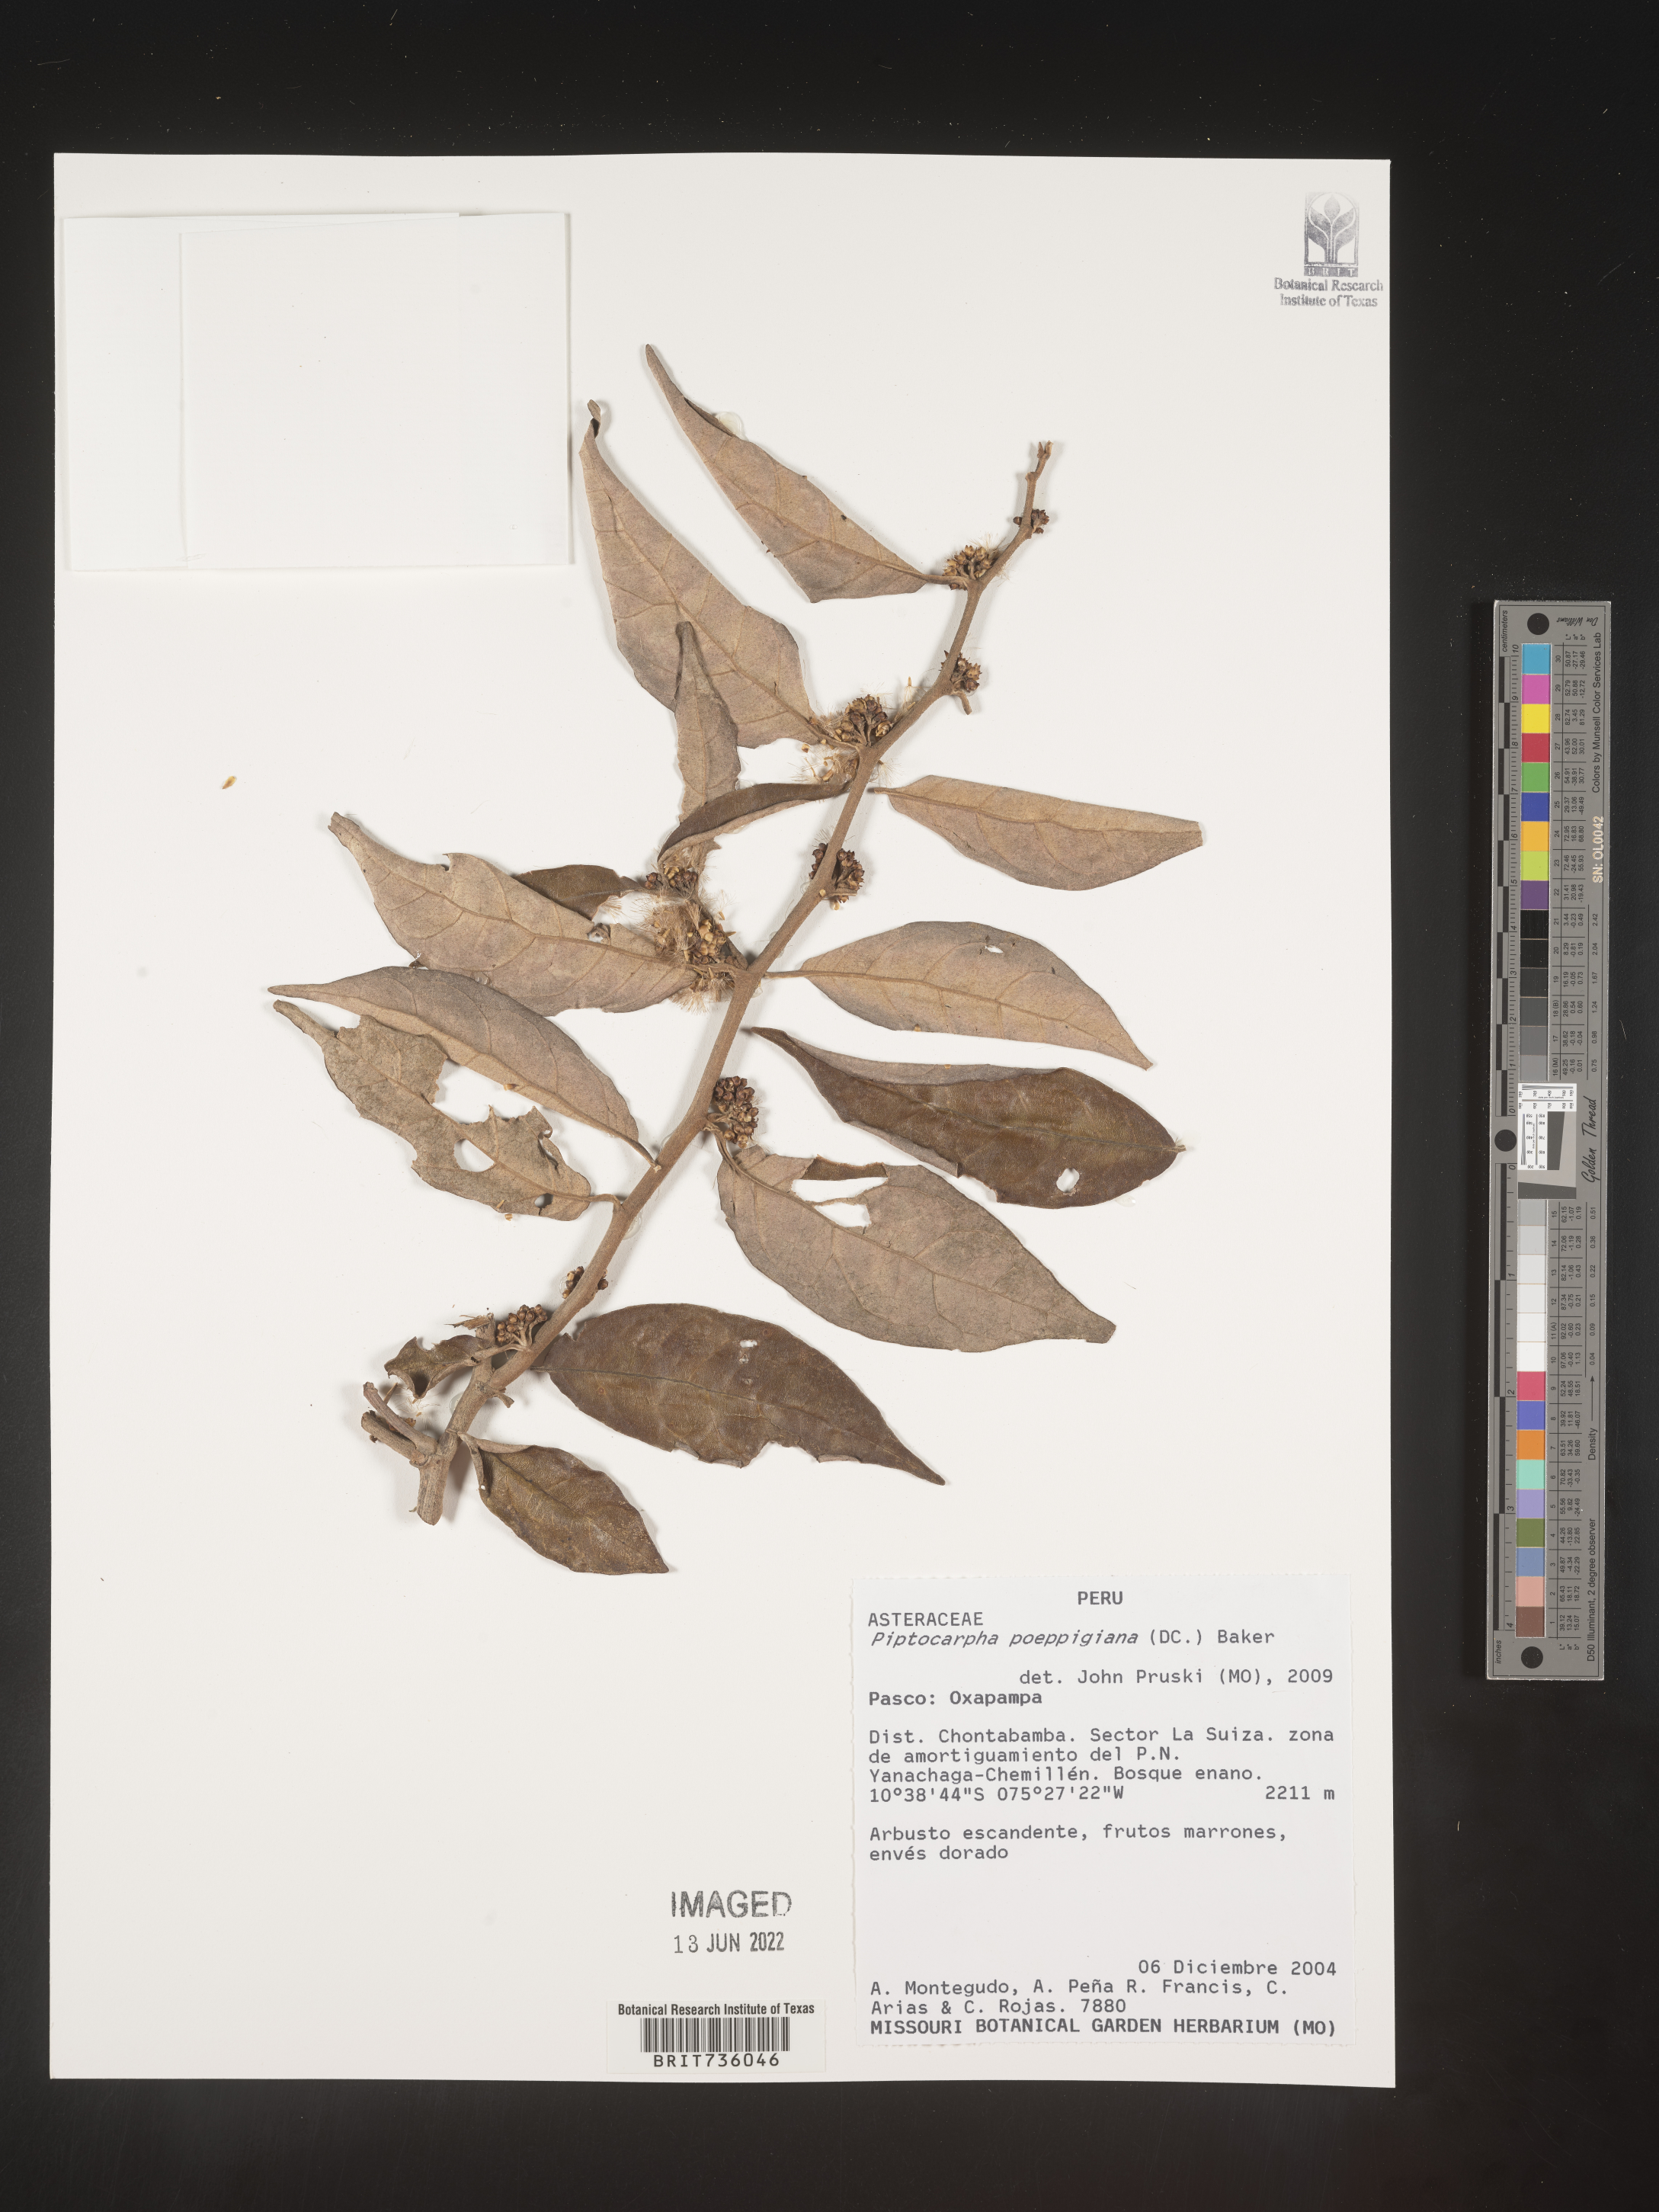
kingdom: Plantae
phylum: Tracheophyta
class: Magnoliopsida
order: Asterales
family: Asteraceae
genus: Piptocarpha
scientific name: Piptocarpha
